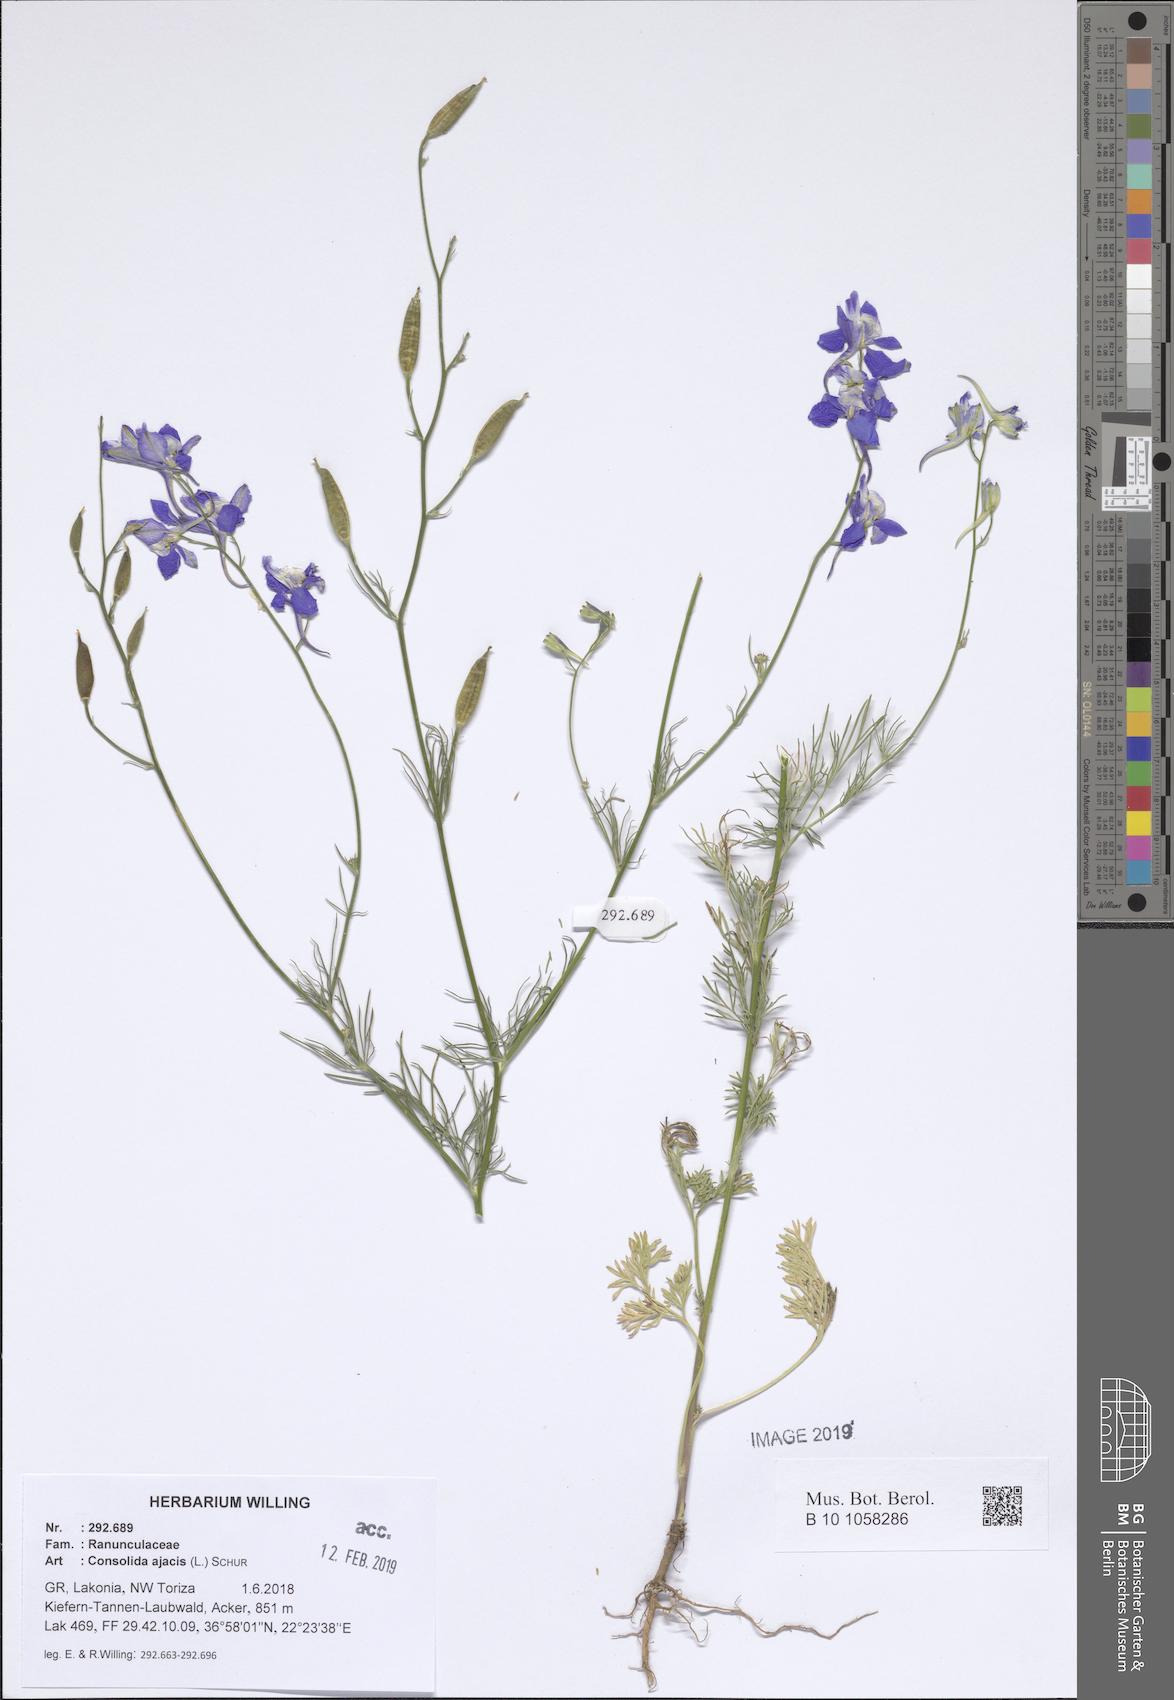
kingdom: Plantae
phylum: Tracheophyta
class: Magnoliopsida
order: Ranunculales
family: Ranunculaceae
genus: Delphinium
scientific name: Delphinium ajacis
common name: Doubtful knight's-spur
